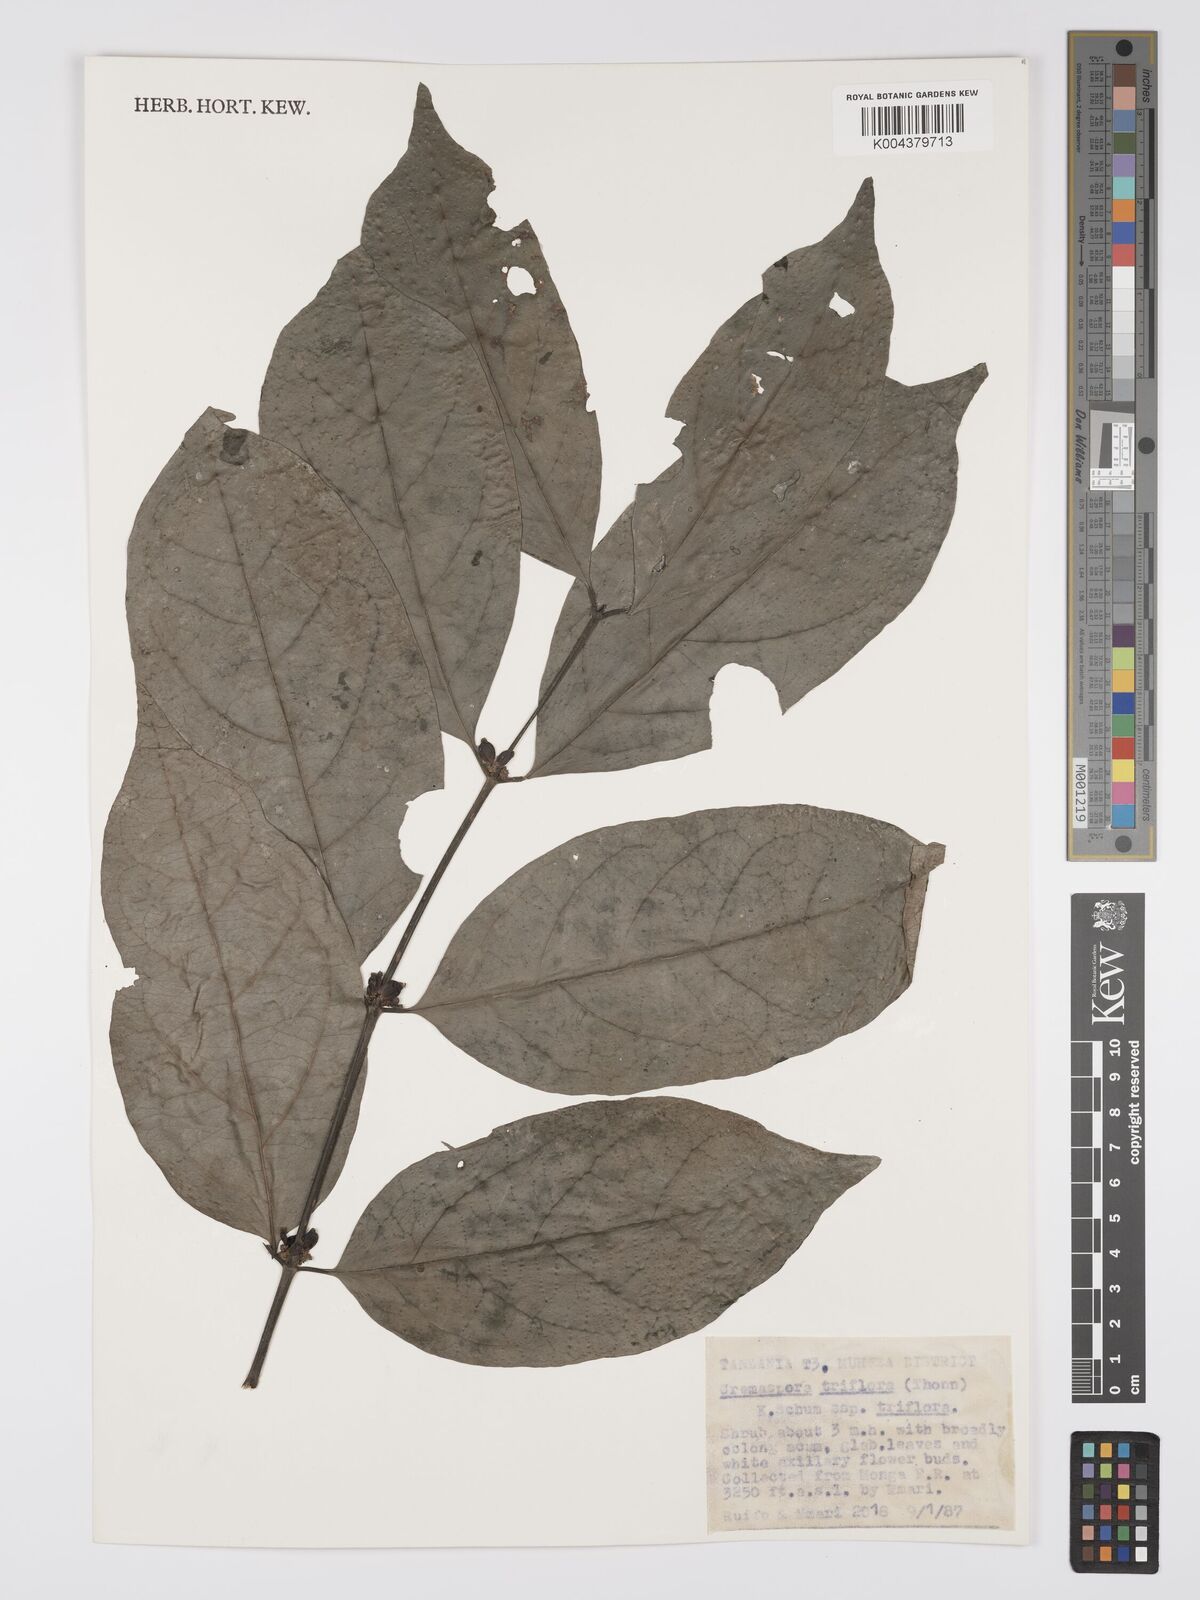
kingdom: Plantae
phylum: Tracheophyta
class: Magnoliopsida
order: Gentianales
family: Rubiaceae
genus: Cremaspora
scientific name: Cremaspora triflora
